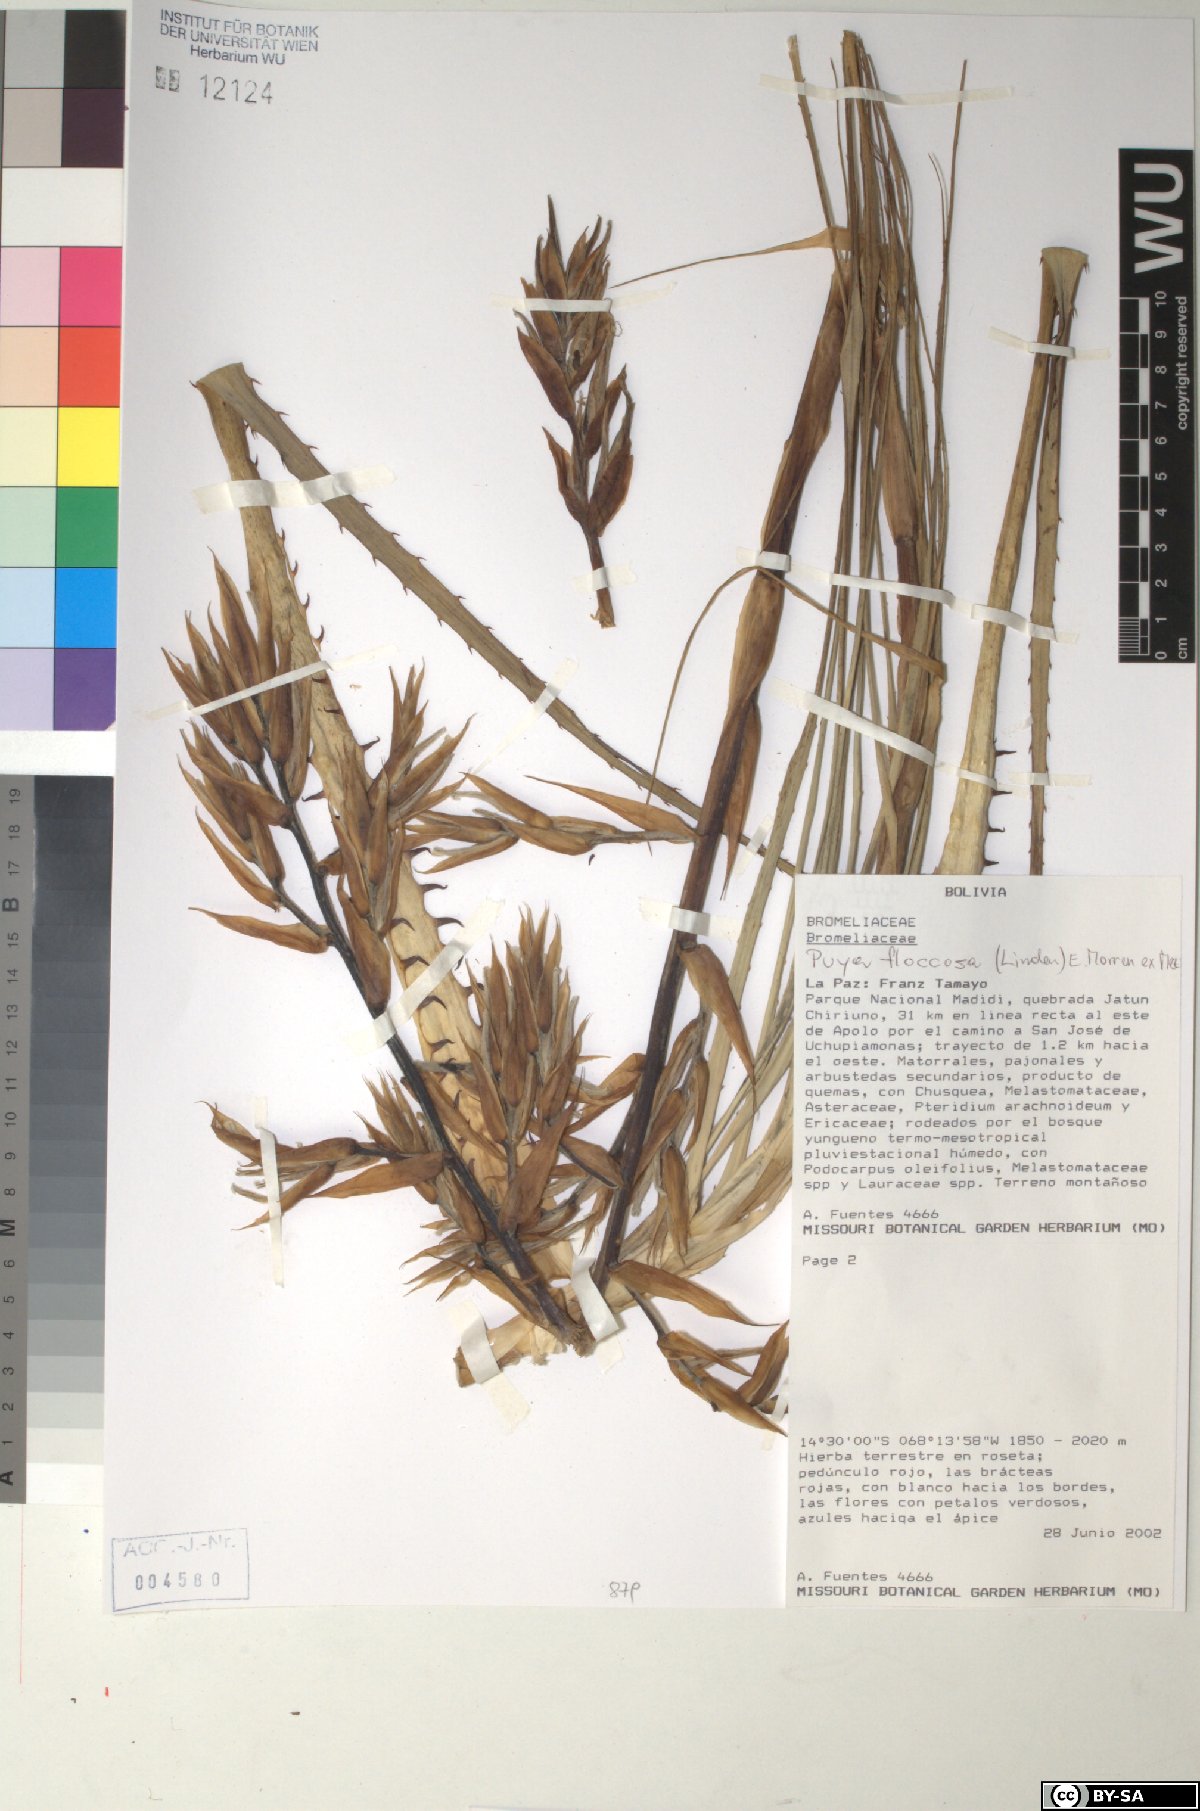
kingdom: Plantae
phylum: Tracheophyta
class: Liliopsida
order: Poales
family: Bromeliaceae
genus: Puya
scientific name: Puya floccosa
